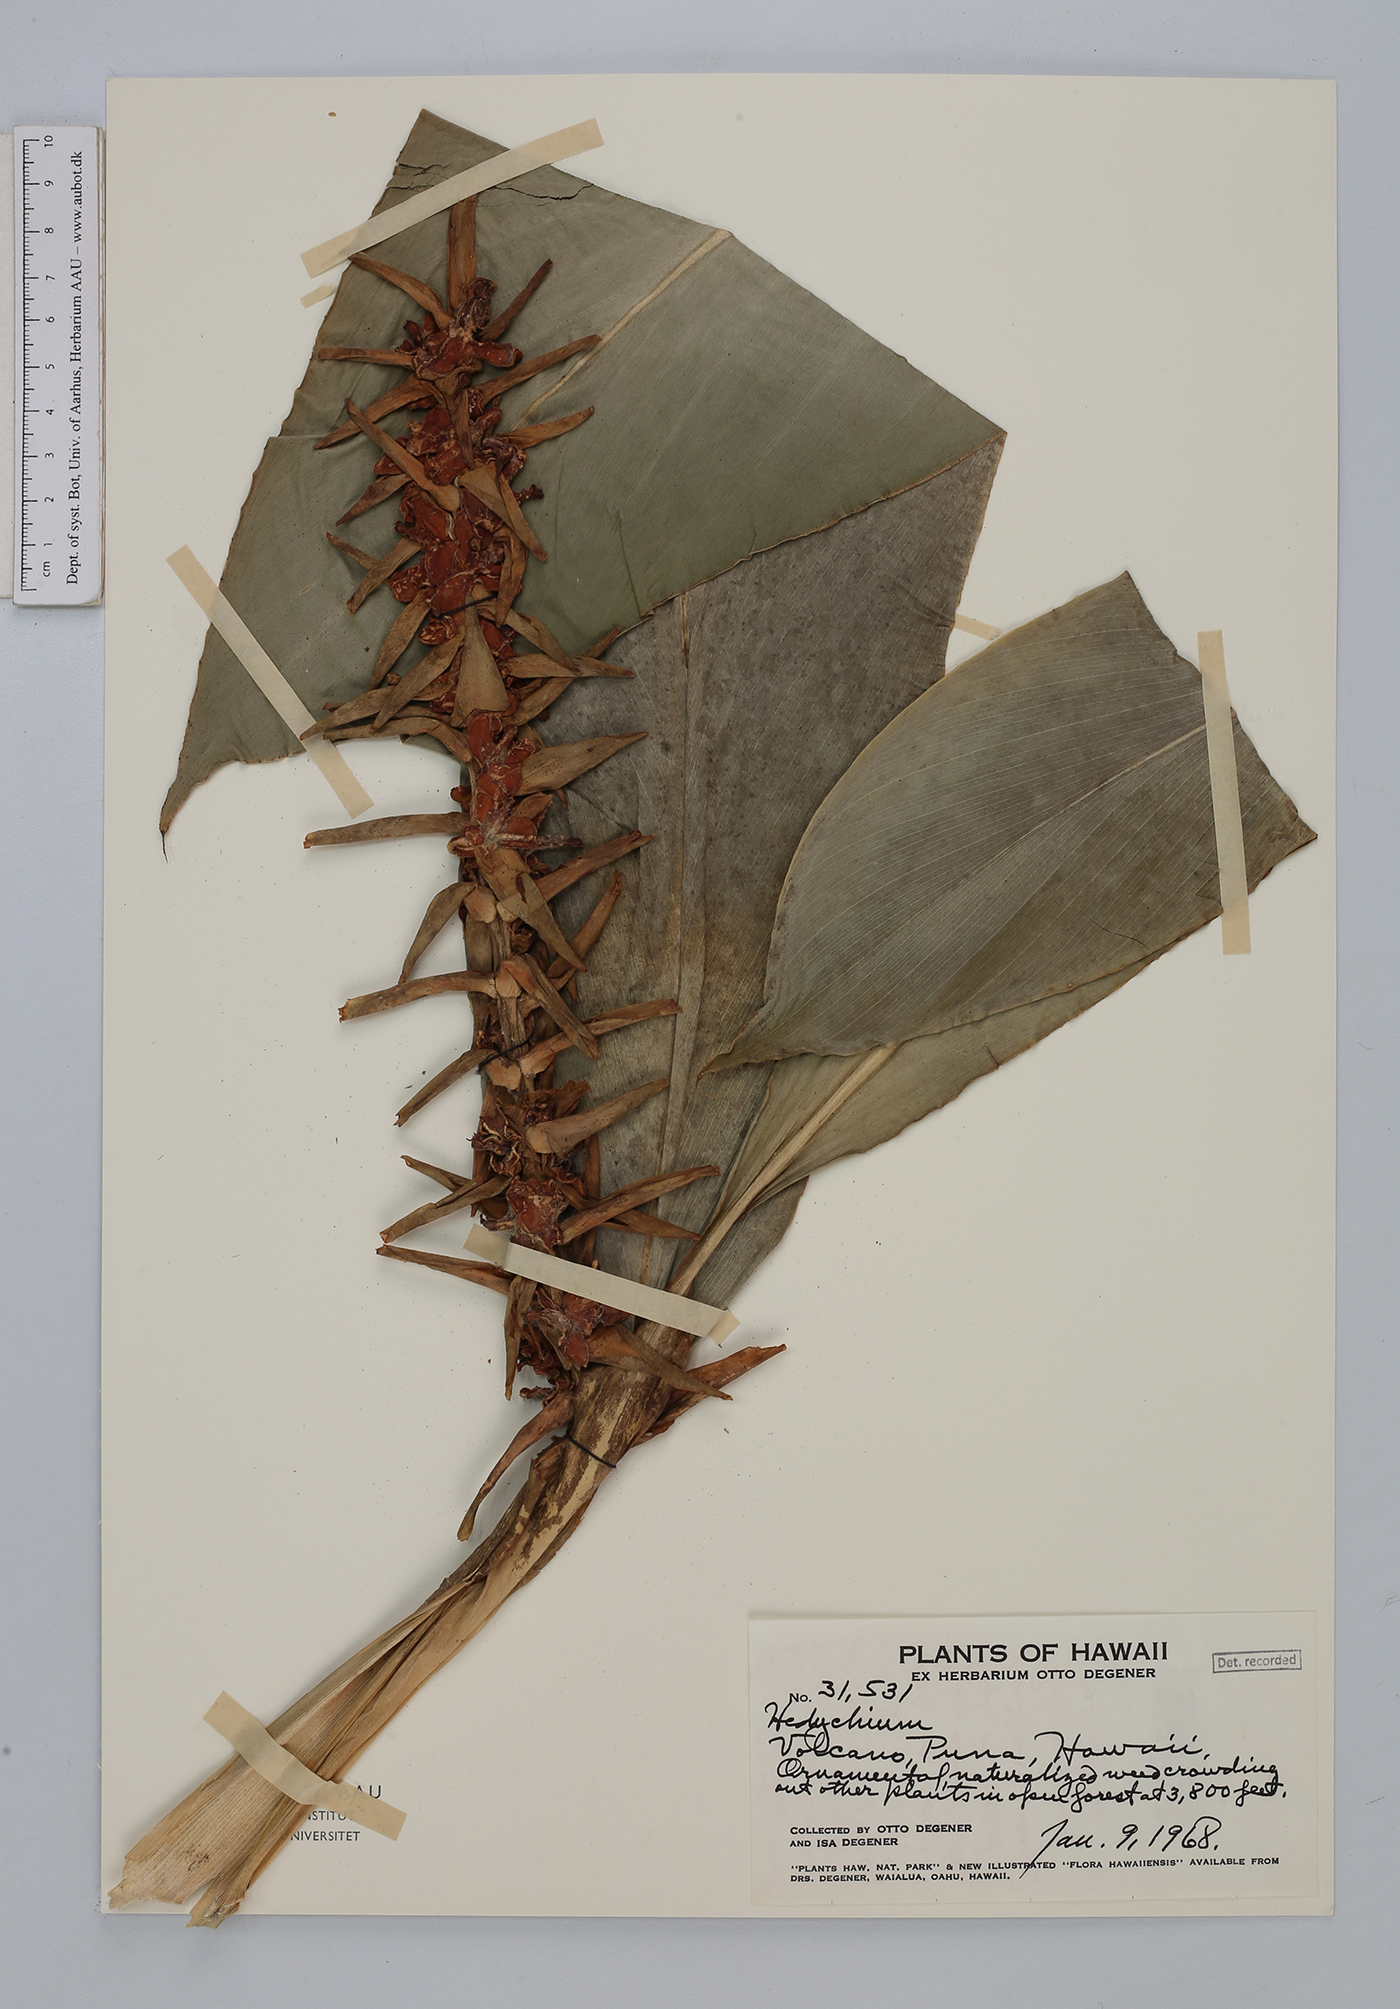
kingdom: Plantae
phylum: Tracheophyta
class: Liliopsida
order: Zingiberales
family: Zingiberaceae
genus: Hedychium
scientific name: Hedychium speciosum
